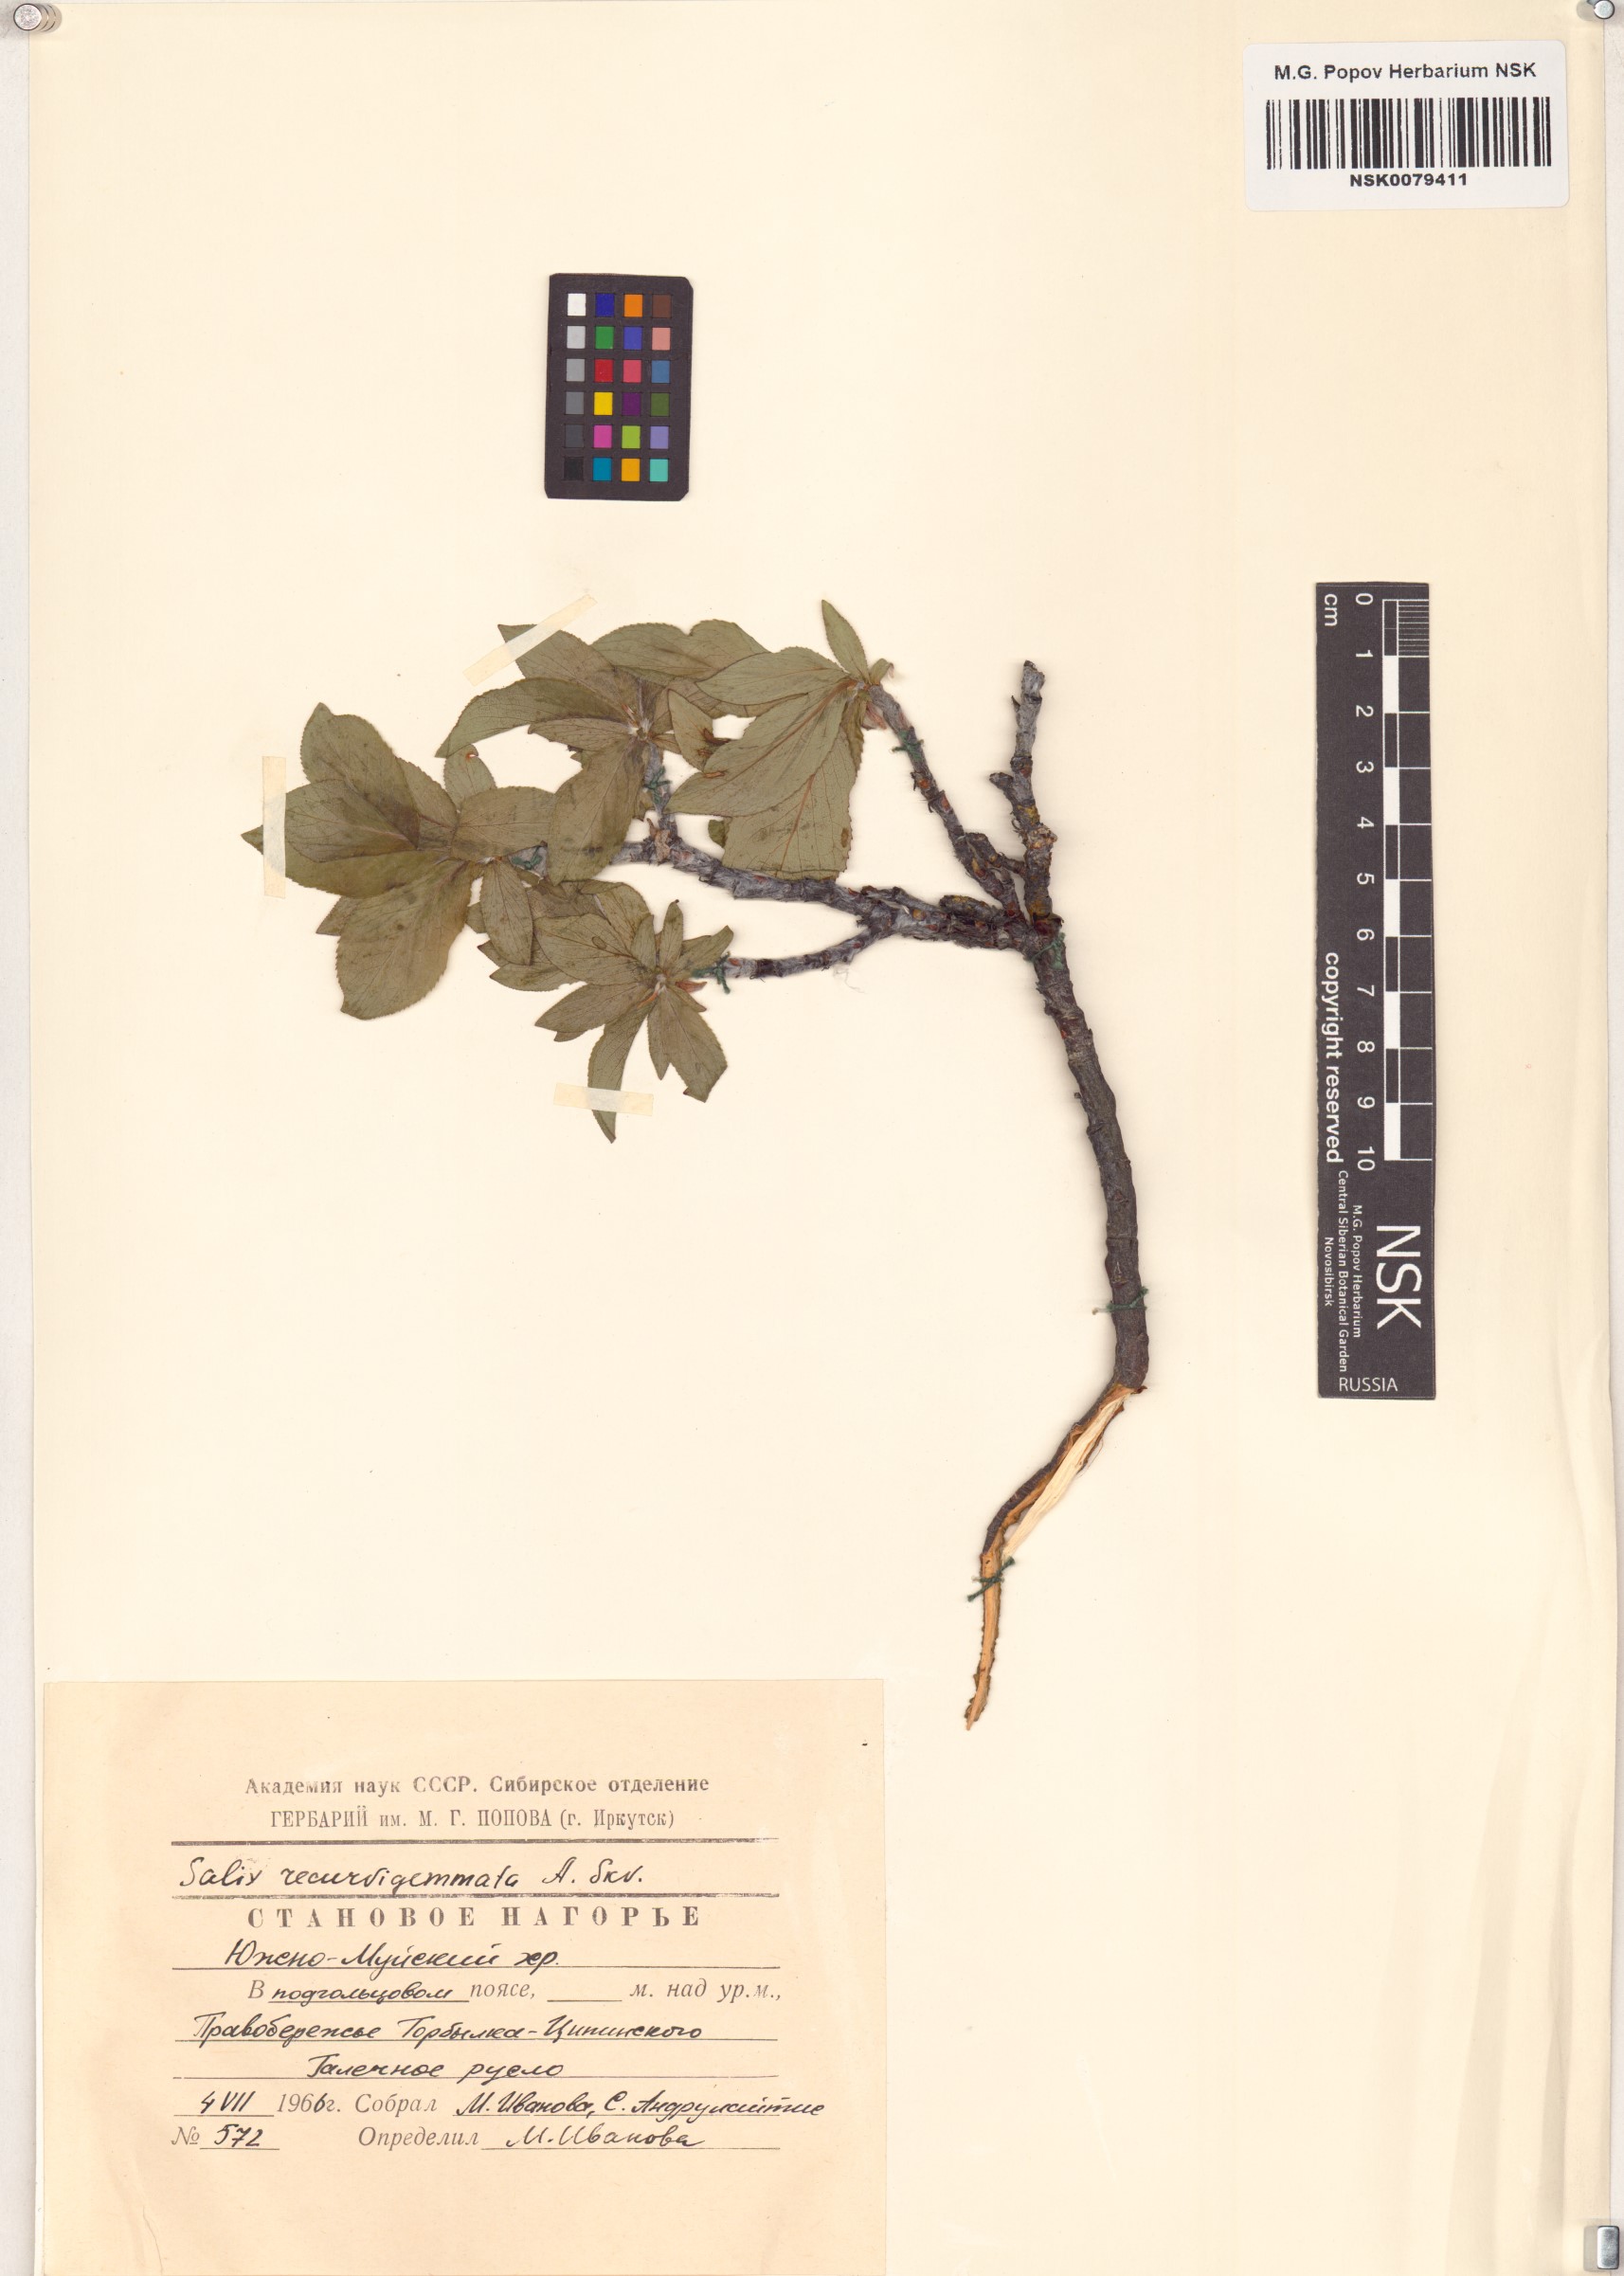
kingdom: Plantae
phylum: Tracheophyta
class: Magnoliopsida
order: Malpighiales
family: Salicaceae
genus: Salix
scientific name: Salix recurvigemmata
